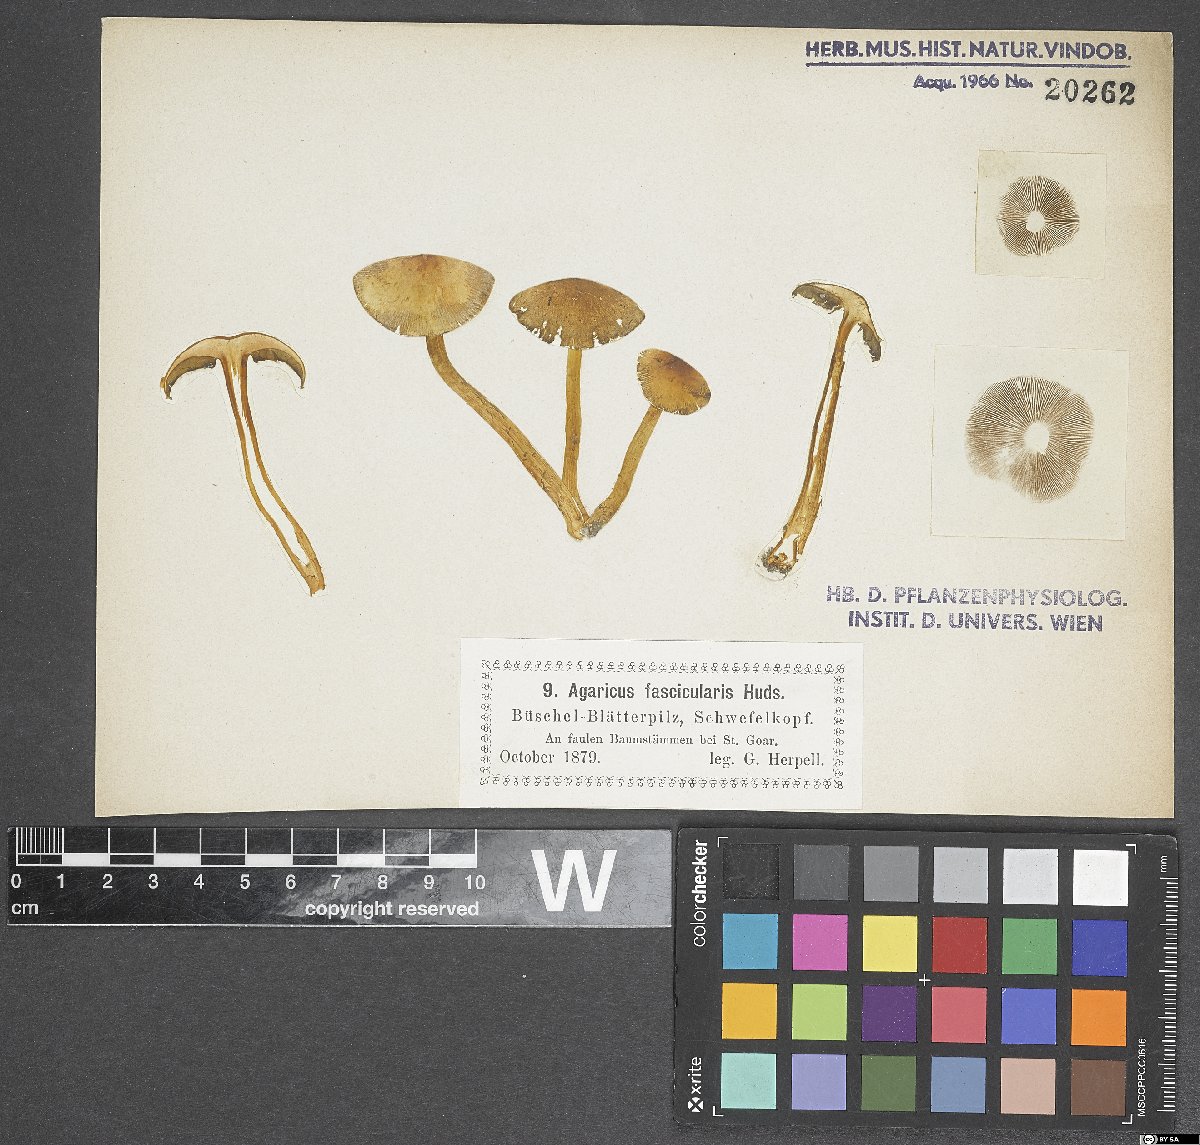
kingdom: Fungi
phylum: Basidiomycota
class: Agaricomycetes
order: Agaricales
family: Agaricaceae
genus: Agaricus
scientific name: Agaricus
